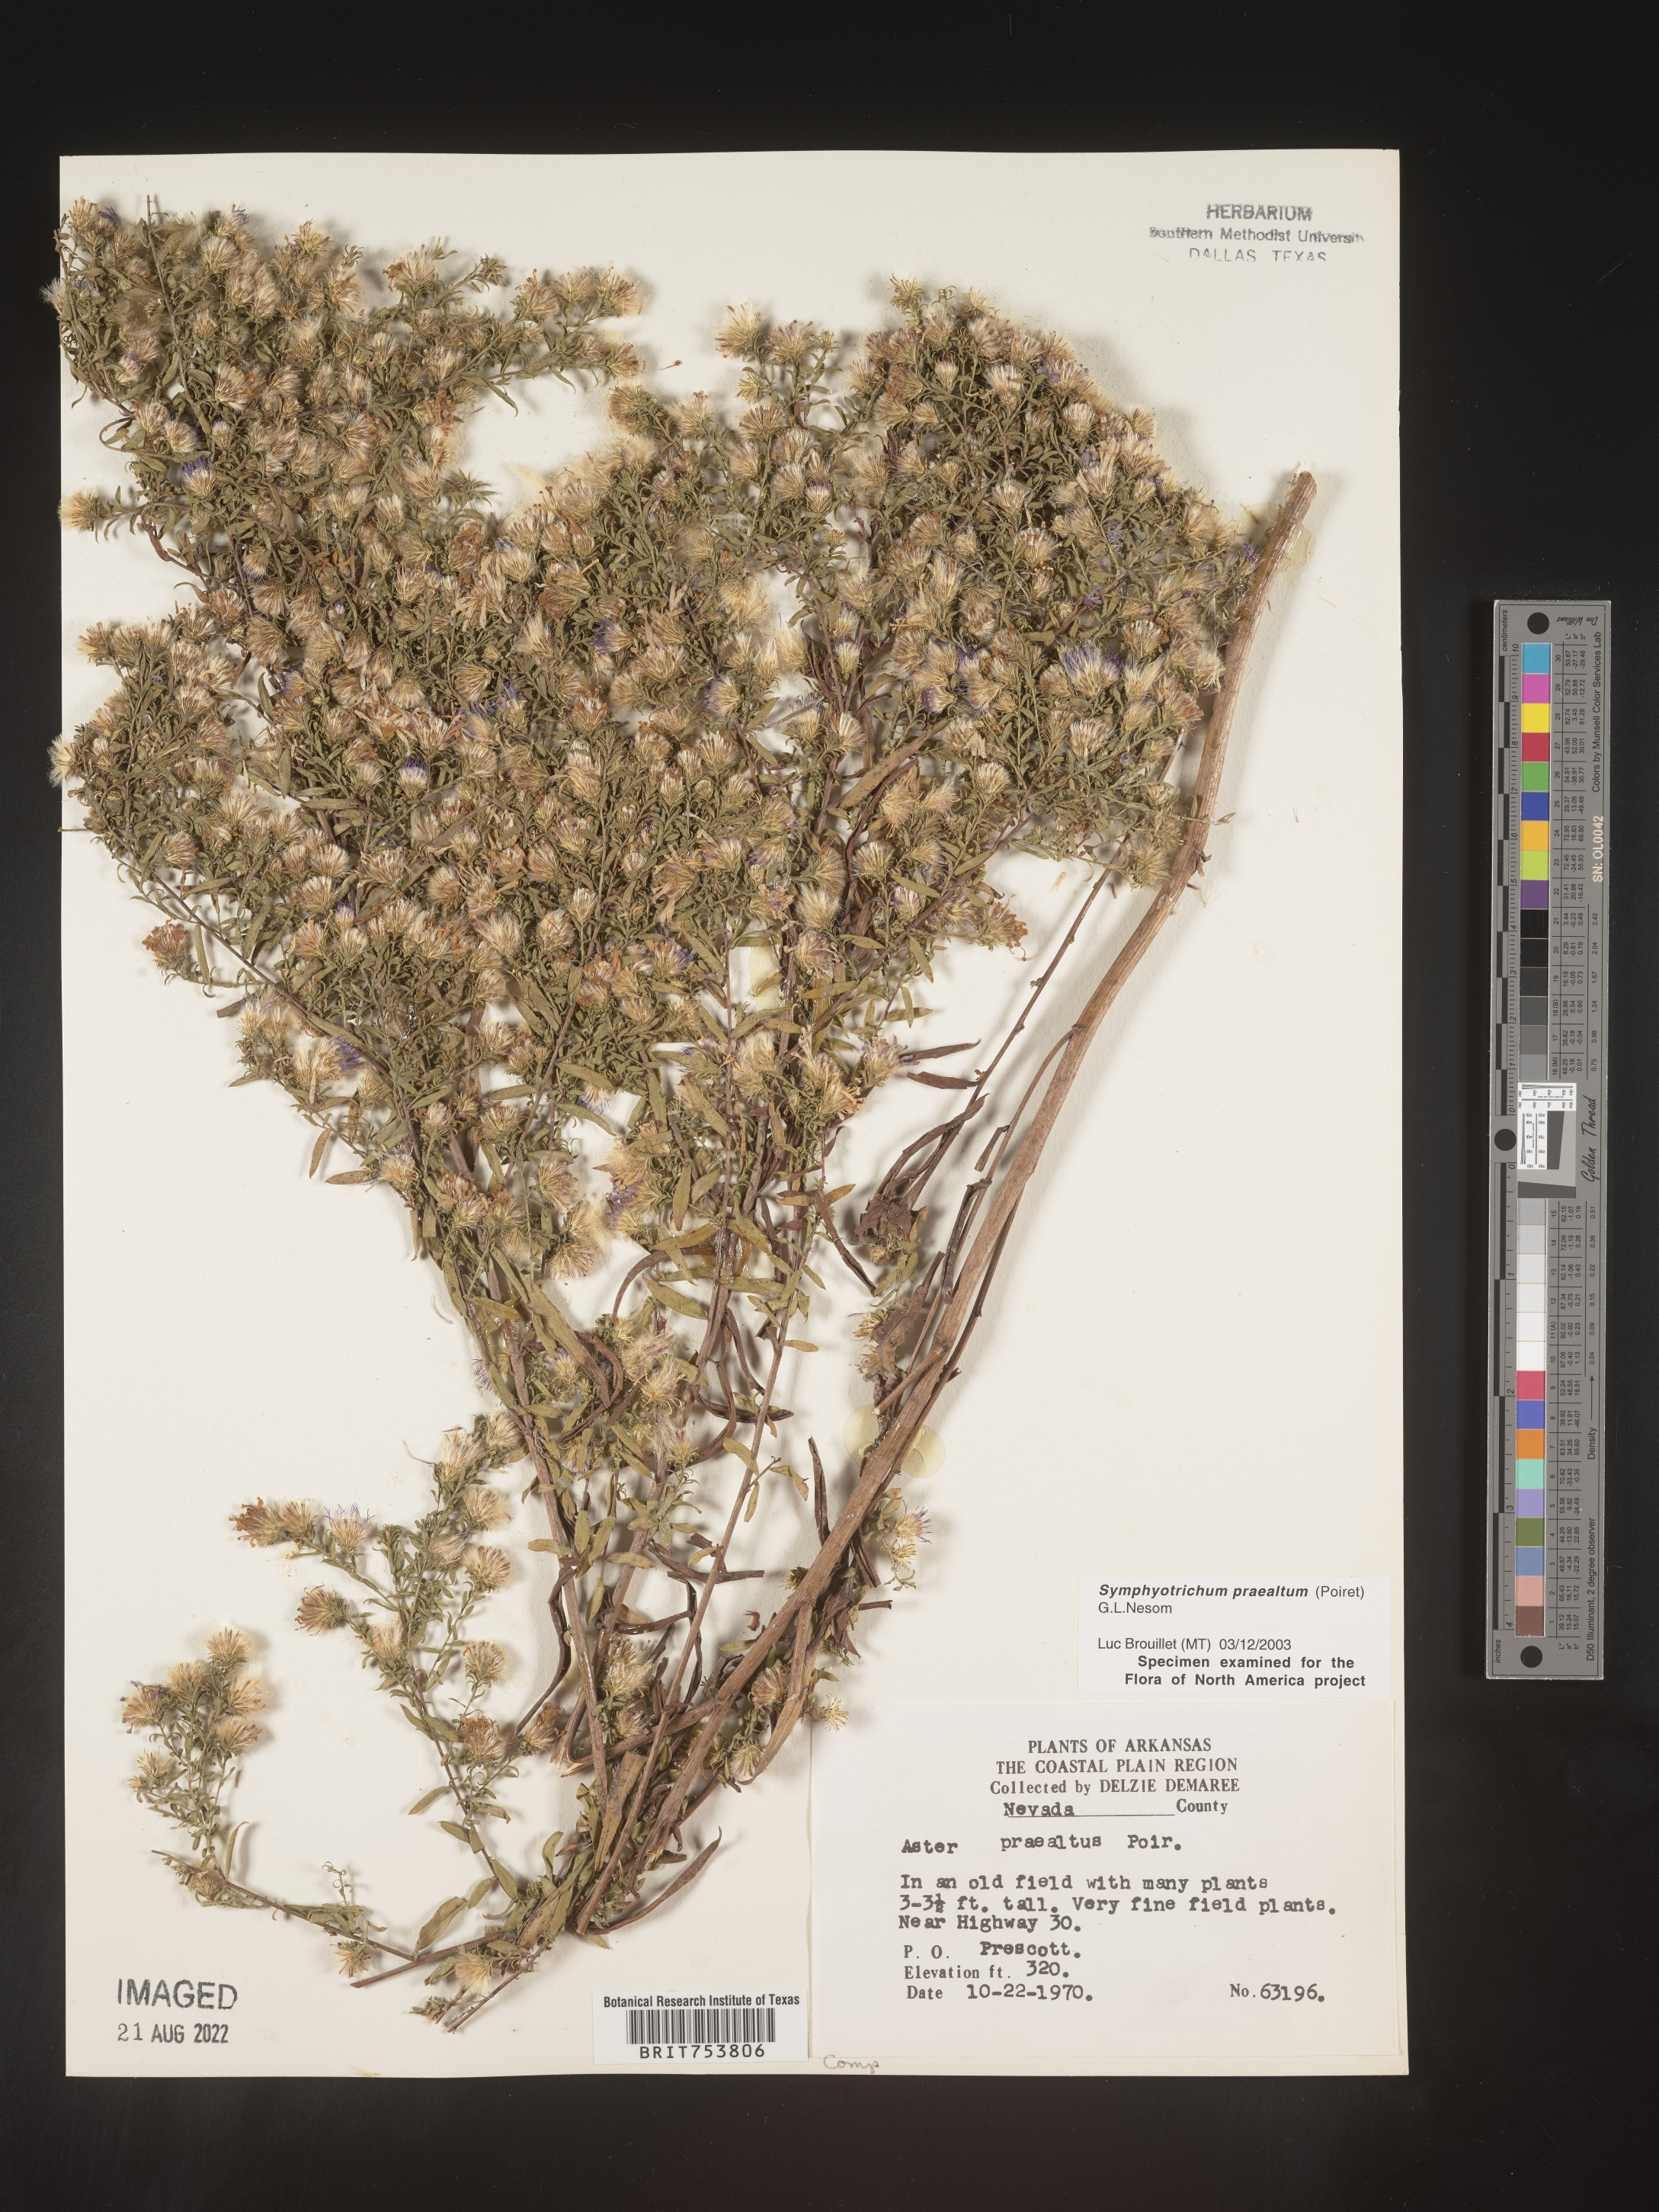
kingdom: Plantae
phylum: Tracheophyta
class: Magnoliopsida
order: Asterales
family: Asteraceae
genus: Symphyotrichum
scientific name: Symphyotrichum praealtum
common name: Willow aster
